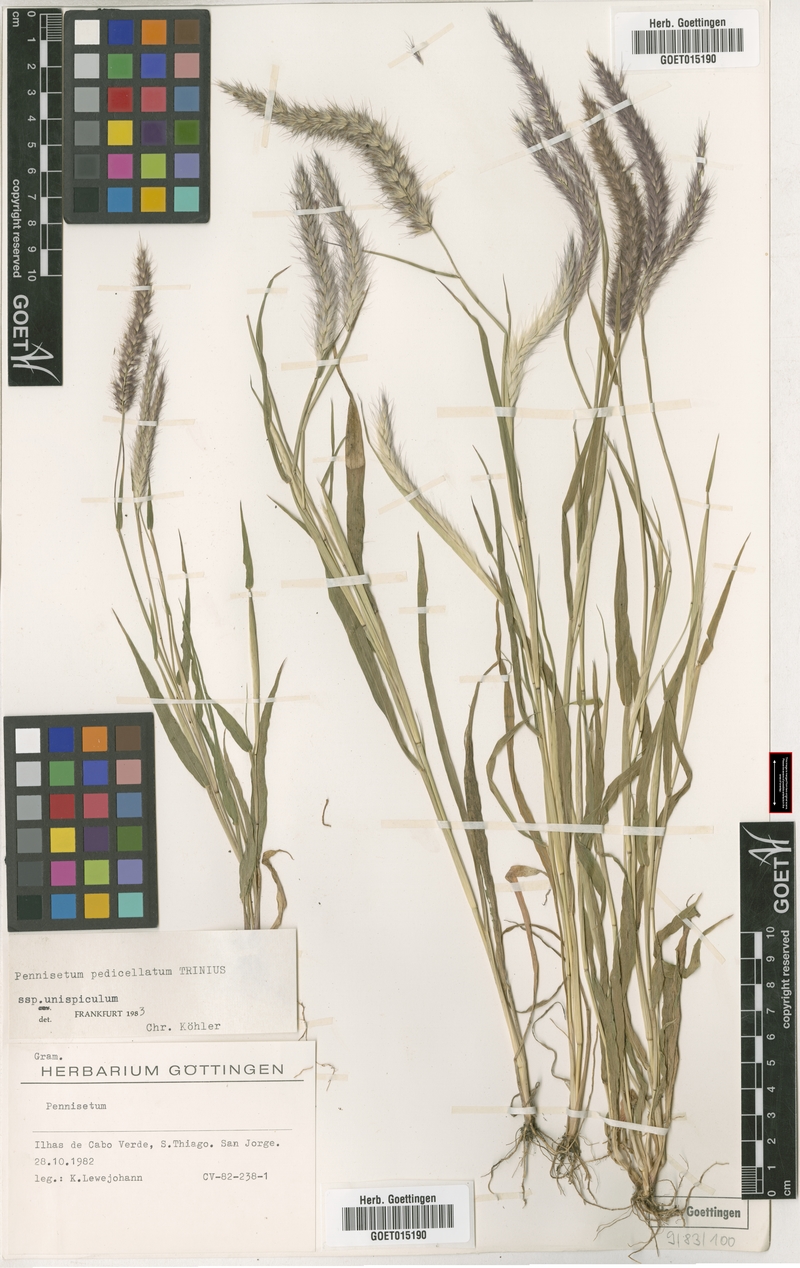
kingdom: Plantae
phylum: Tracheophyta
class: Liliopsida
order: Poales
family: Poaceae
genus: Cenchrus
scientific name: Cenchrus pedicellatus
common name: Hairy fountain grass
